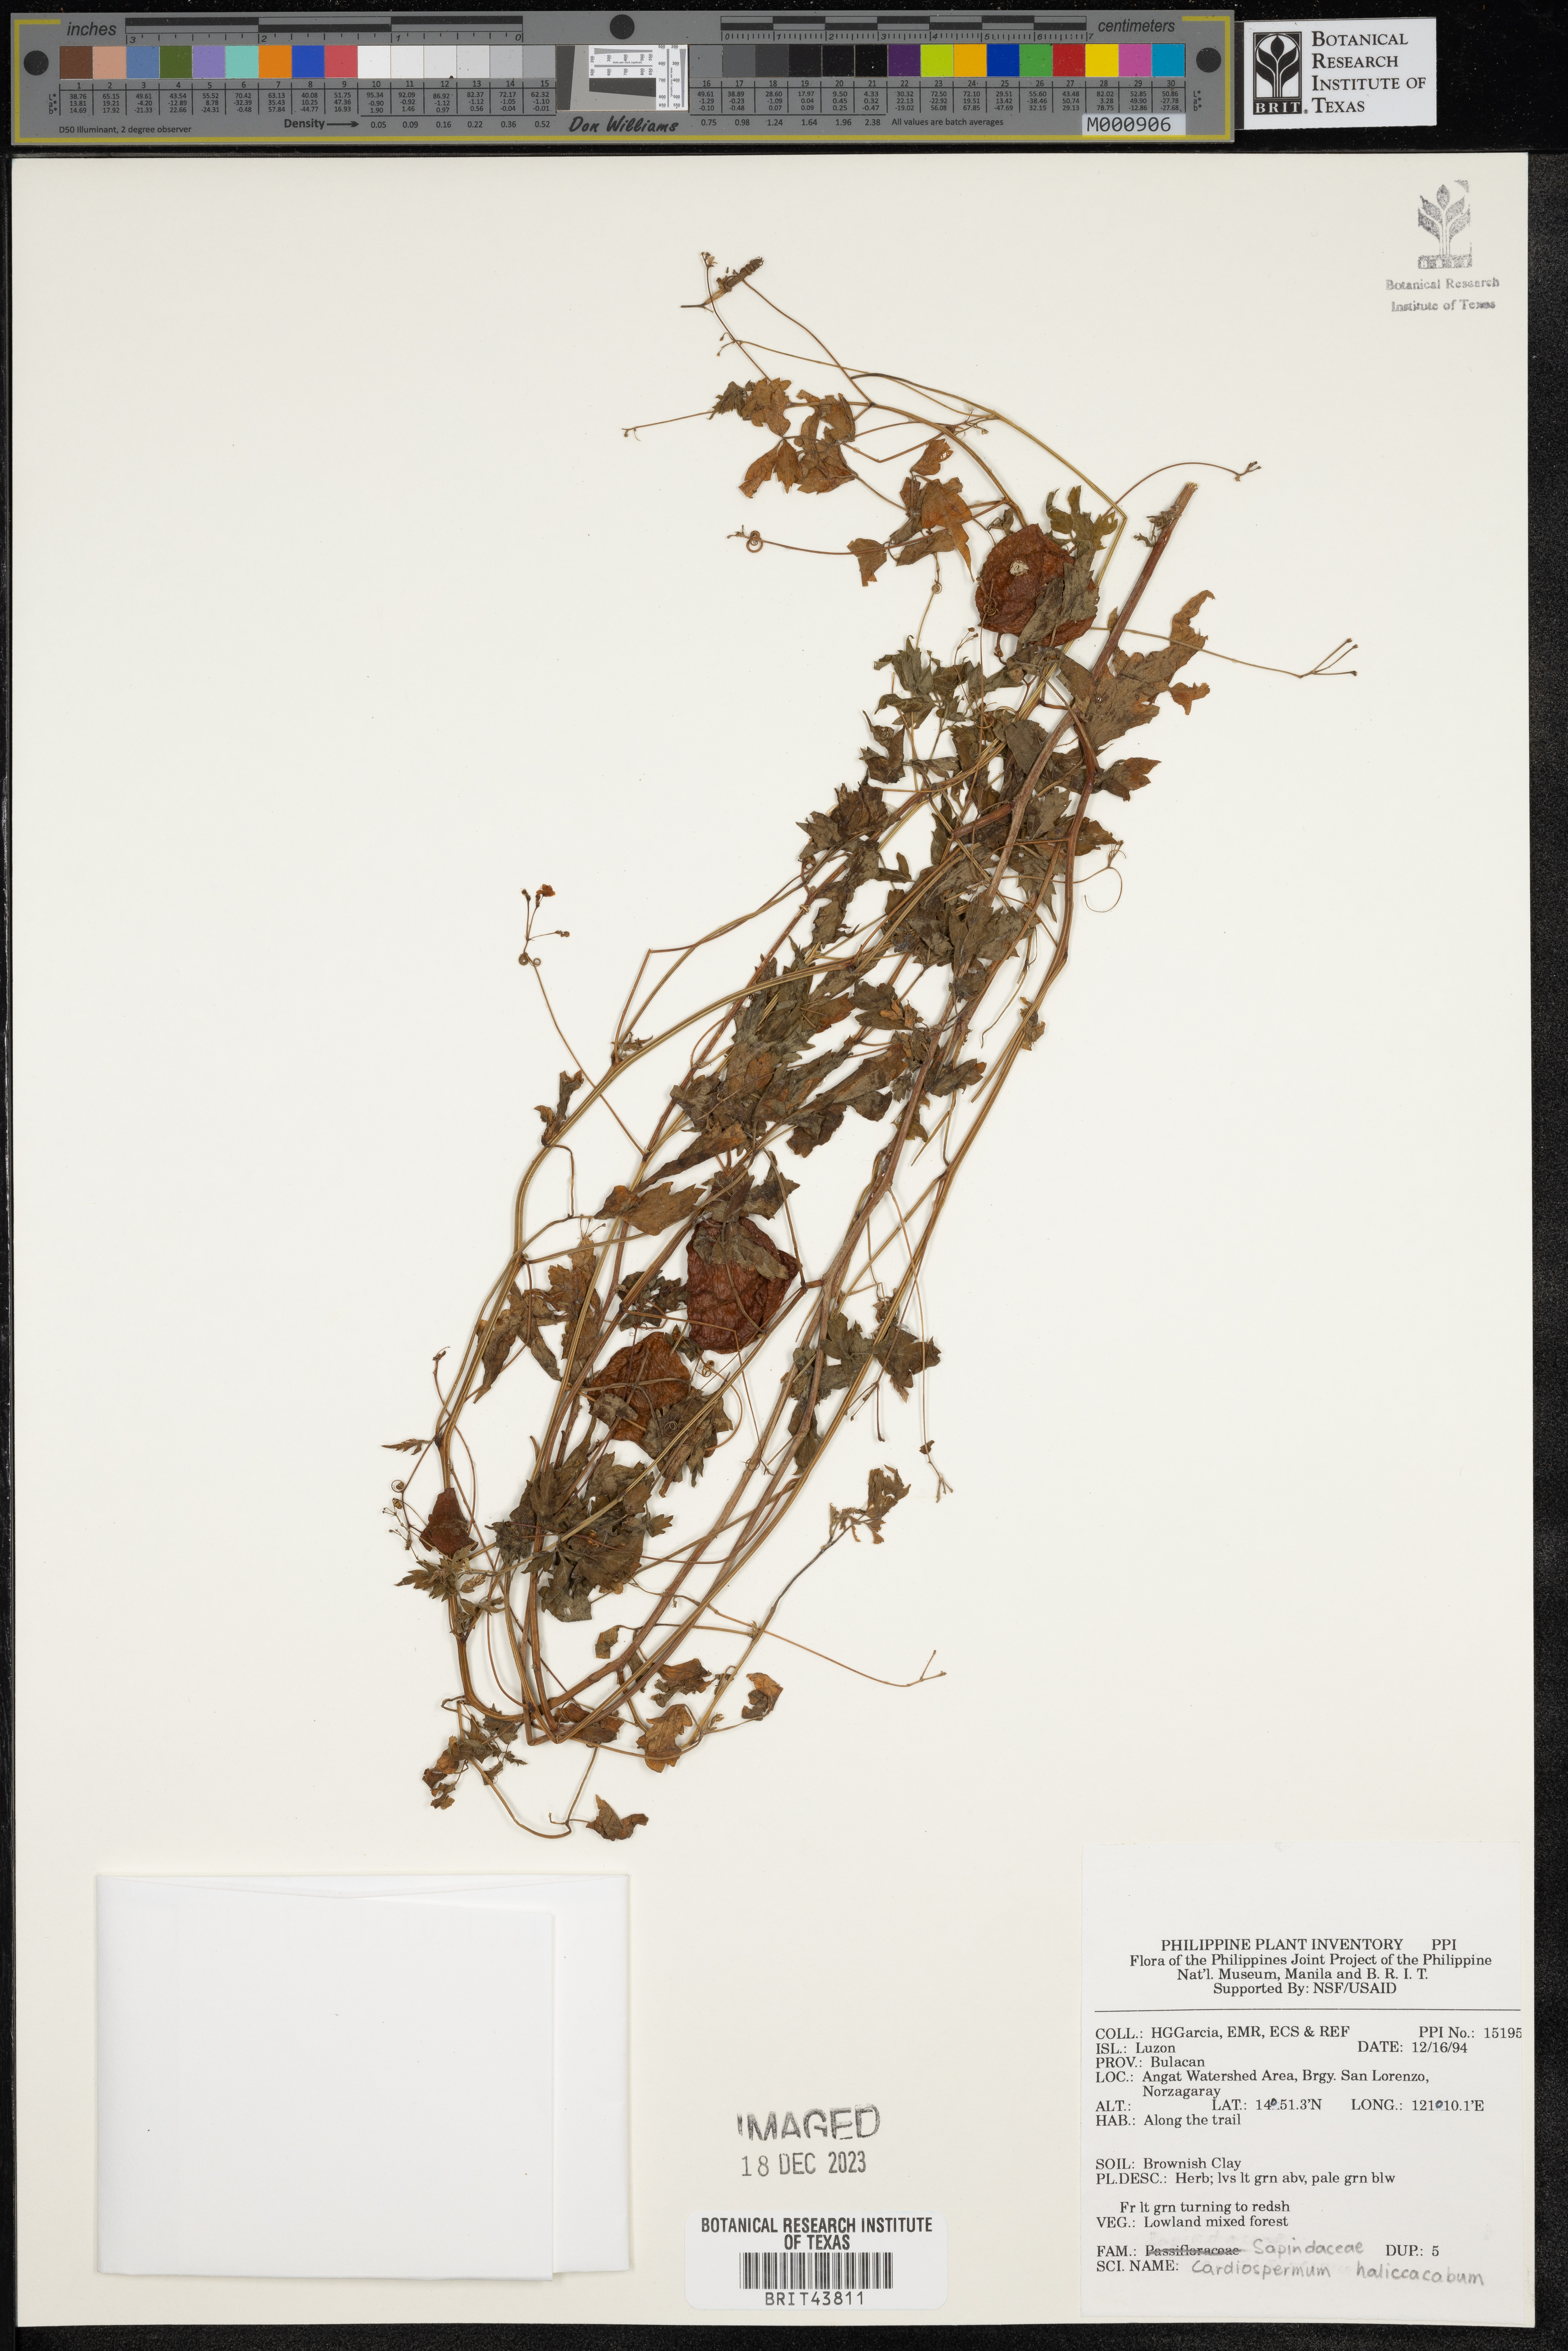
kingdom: Plantae
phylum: Tracheophyta
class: Magnoliopsida
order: Sapindales
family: Sapindaceae
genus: Cardiospermum
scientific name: Cardiospermum halicacabum
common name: Balloon vine
